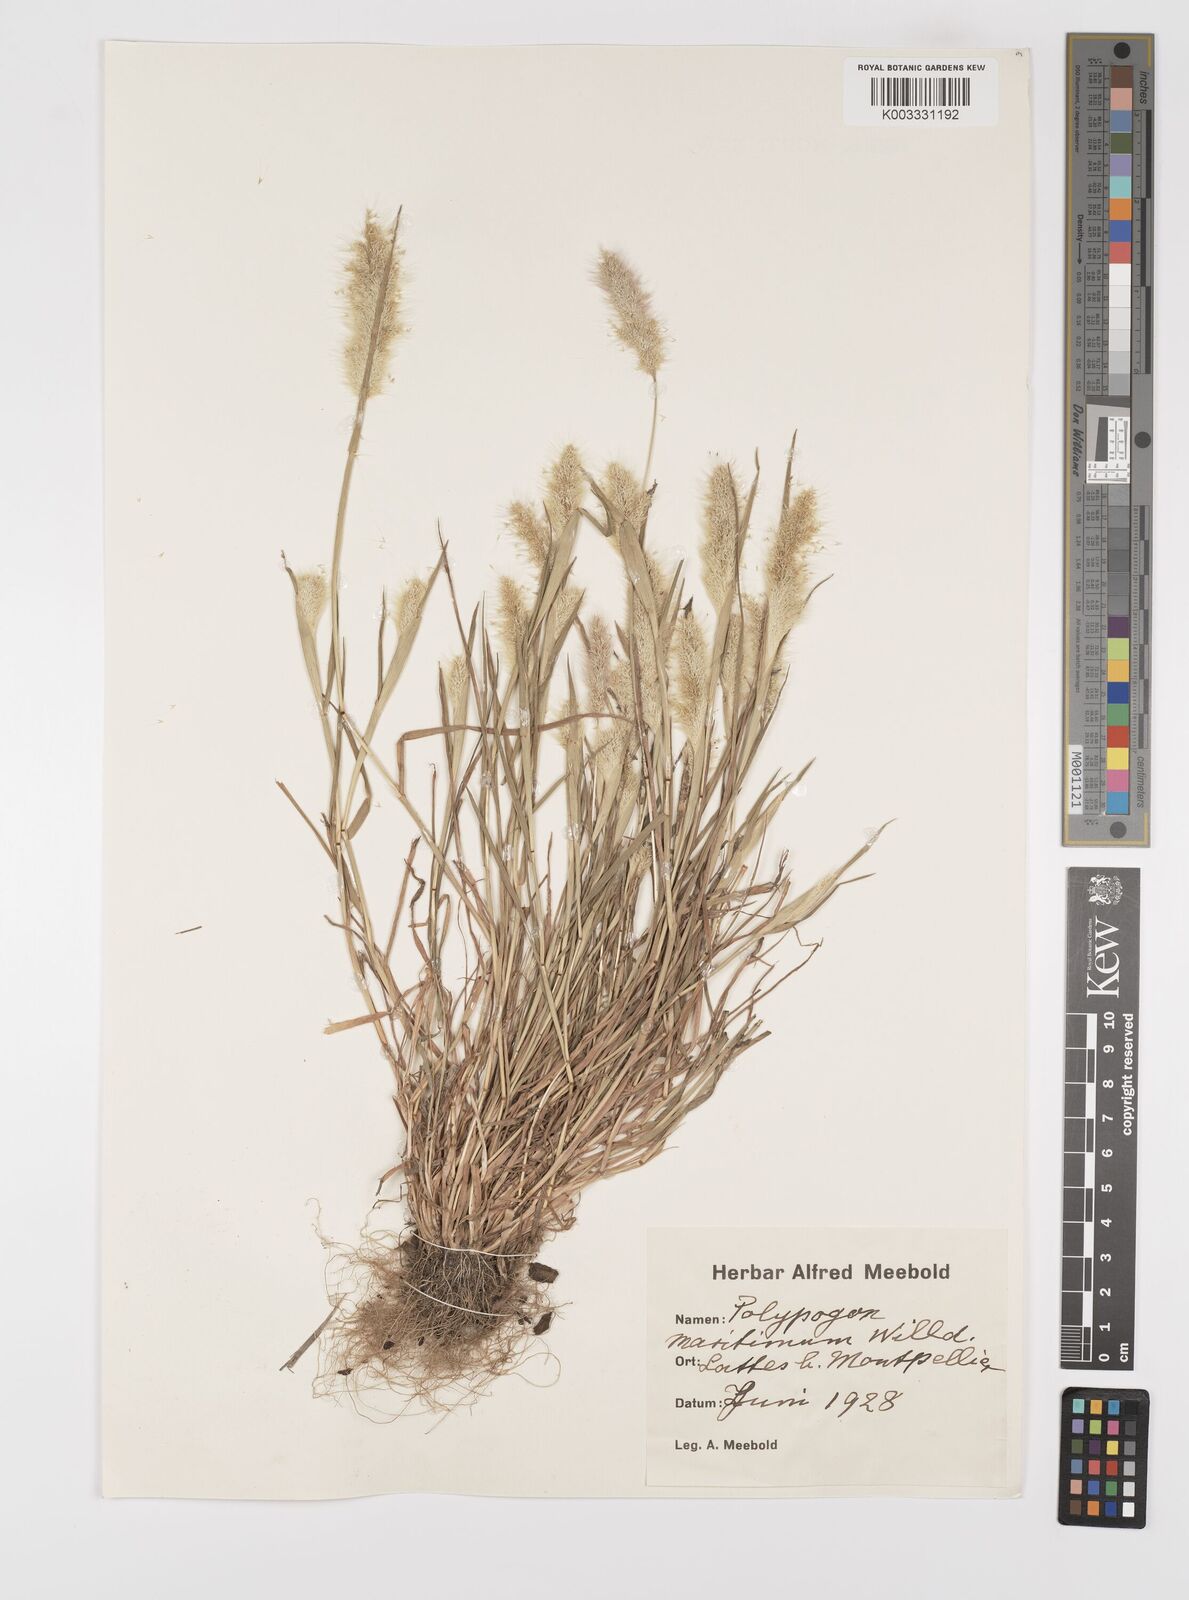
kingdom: Plantae
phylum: Tracheophyta
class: Liliopsida
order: Poales
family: Poaceae
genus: Polypogon
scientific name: Polypogon maritimus
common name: Mediterranean rabbitsfoot grass
